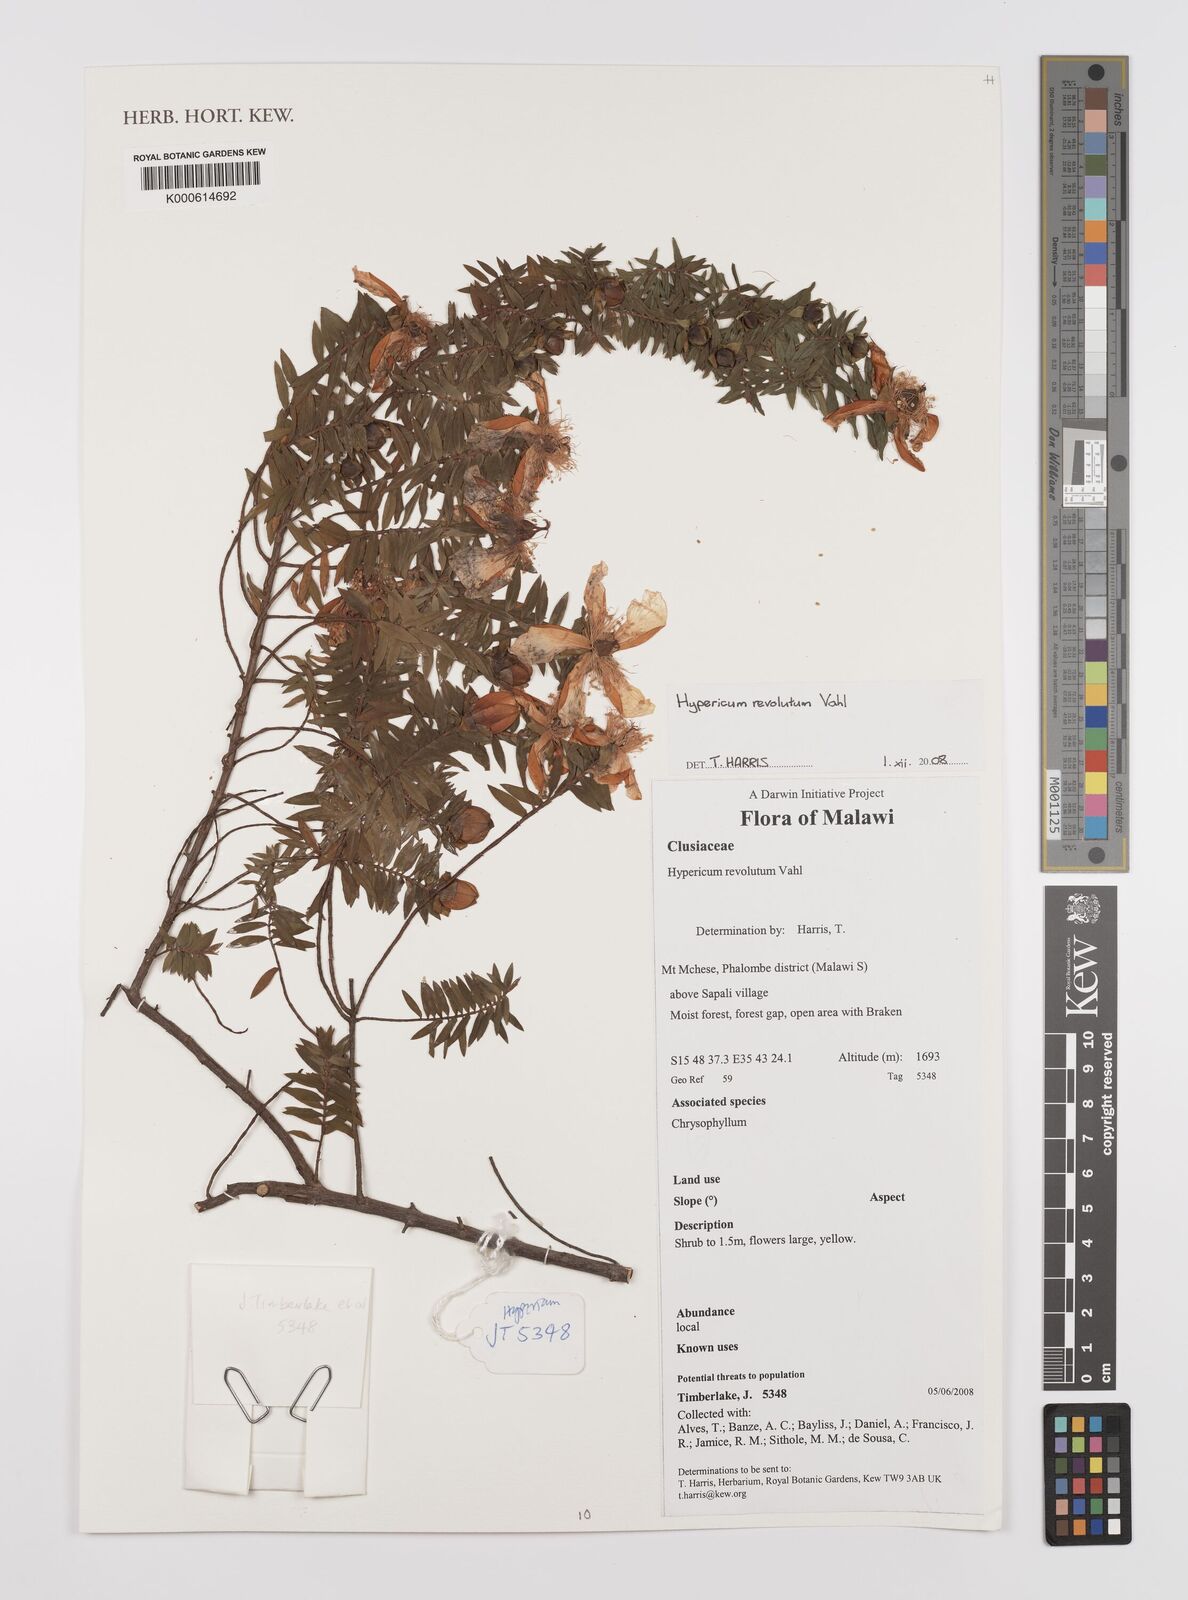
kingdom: Plantae
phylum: Tracheophyta
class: Magnoliopsida
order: Malpighiales
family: Hypericaceae
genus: Hypericum
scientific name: Hypericum revolutum
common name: Curry bush
